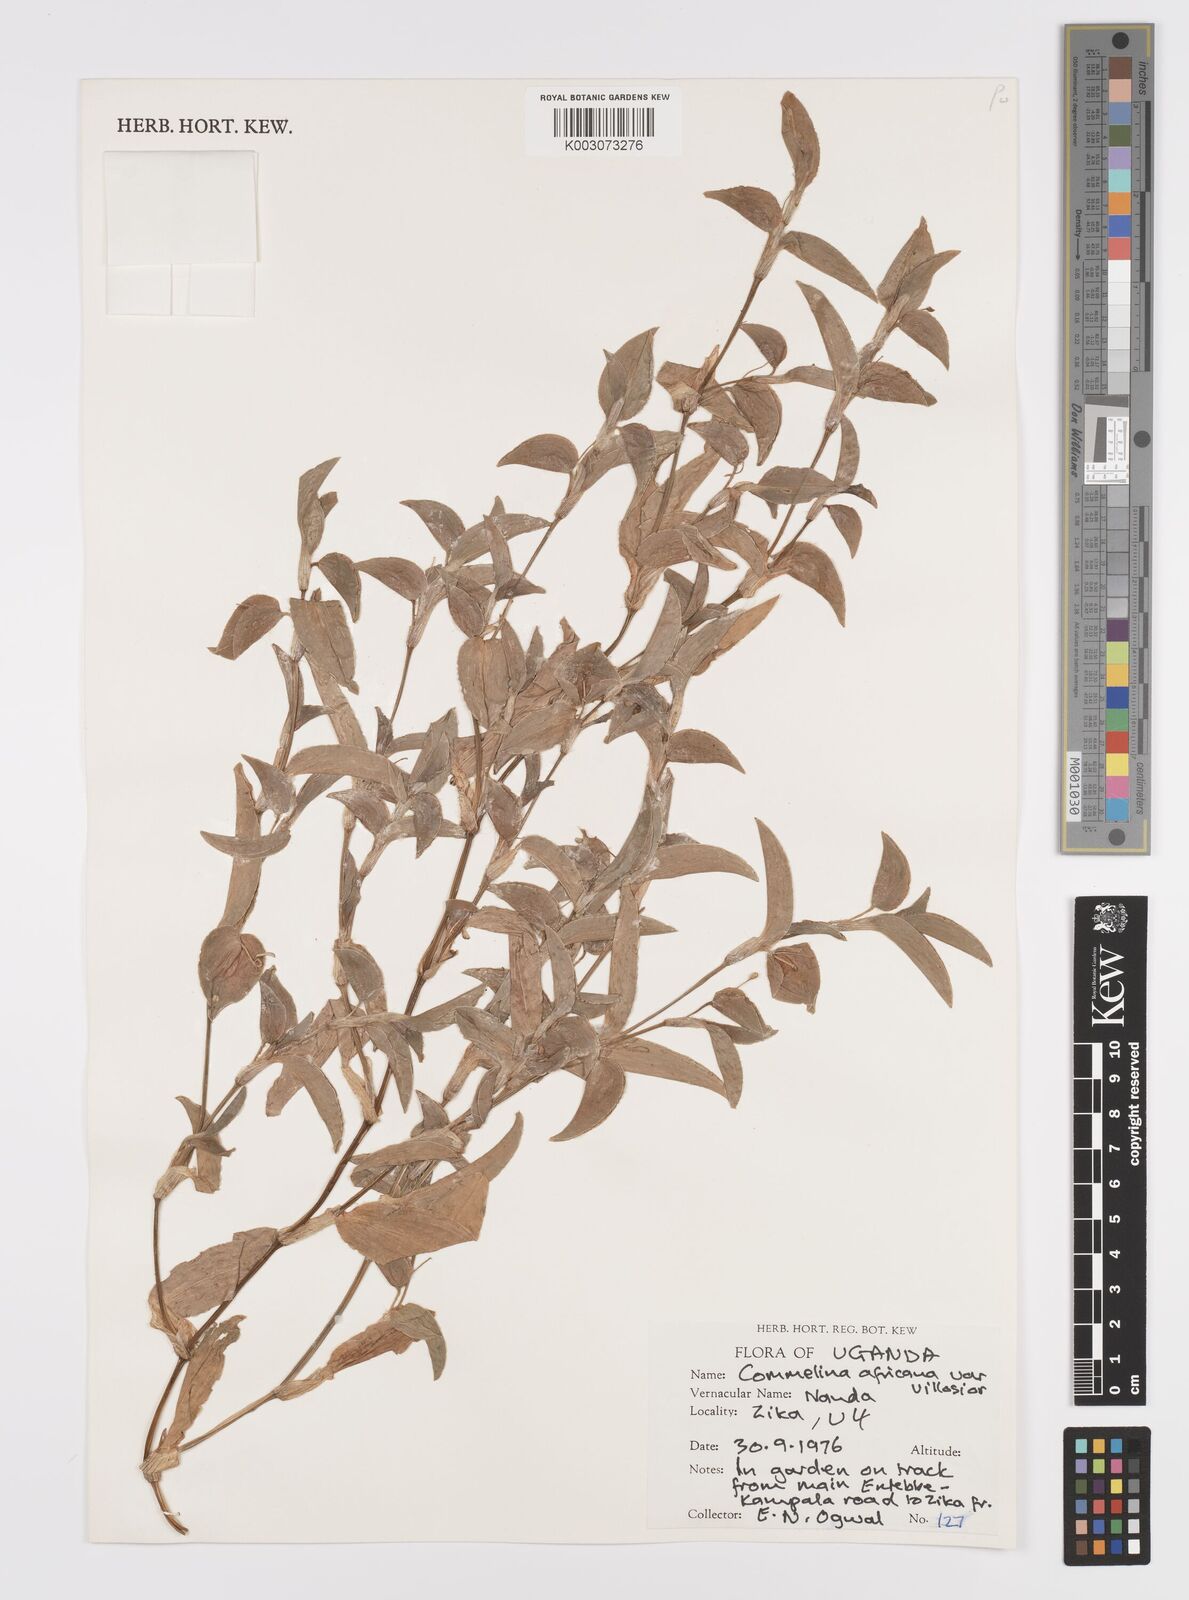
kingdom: Plantae
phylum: Tracheophyta
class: Liliopsida
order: Commelinales
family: Commelinaceae
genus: Commelina
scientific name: Commelina africana
